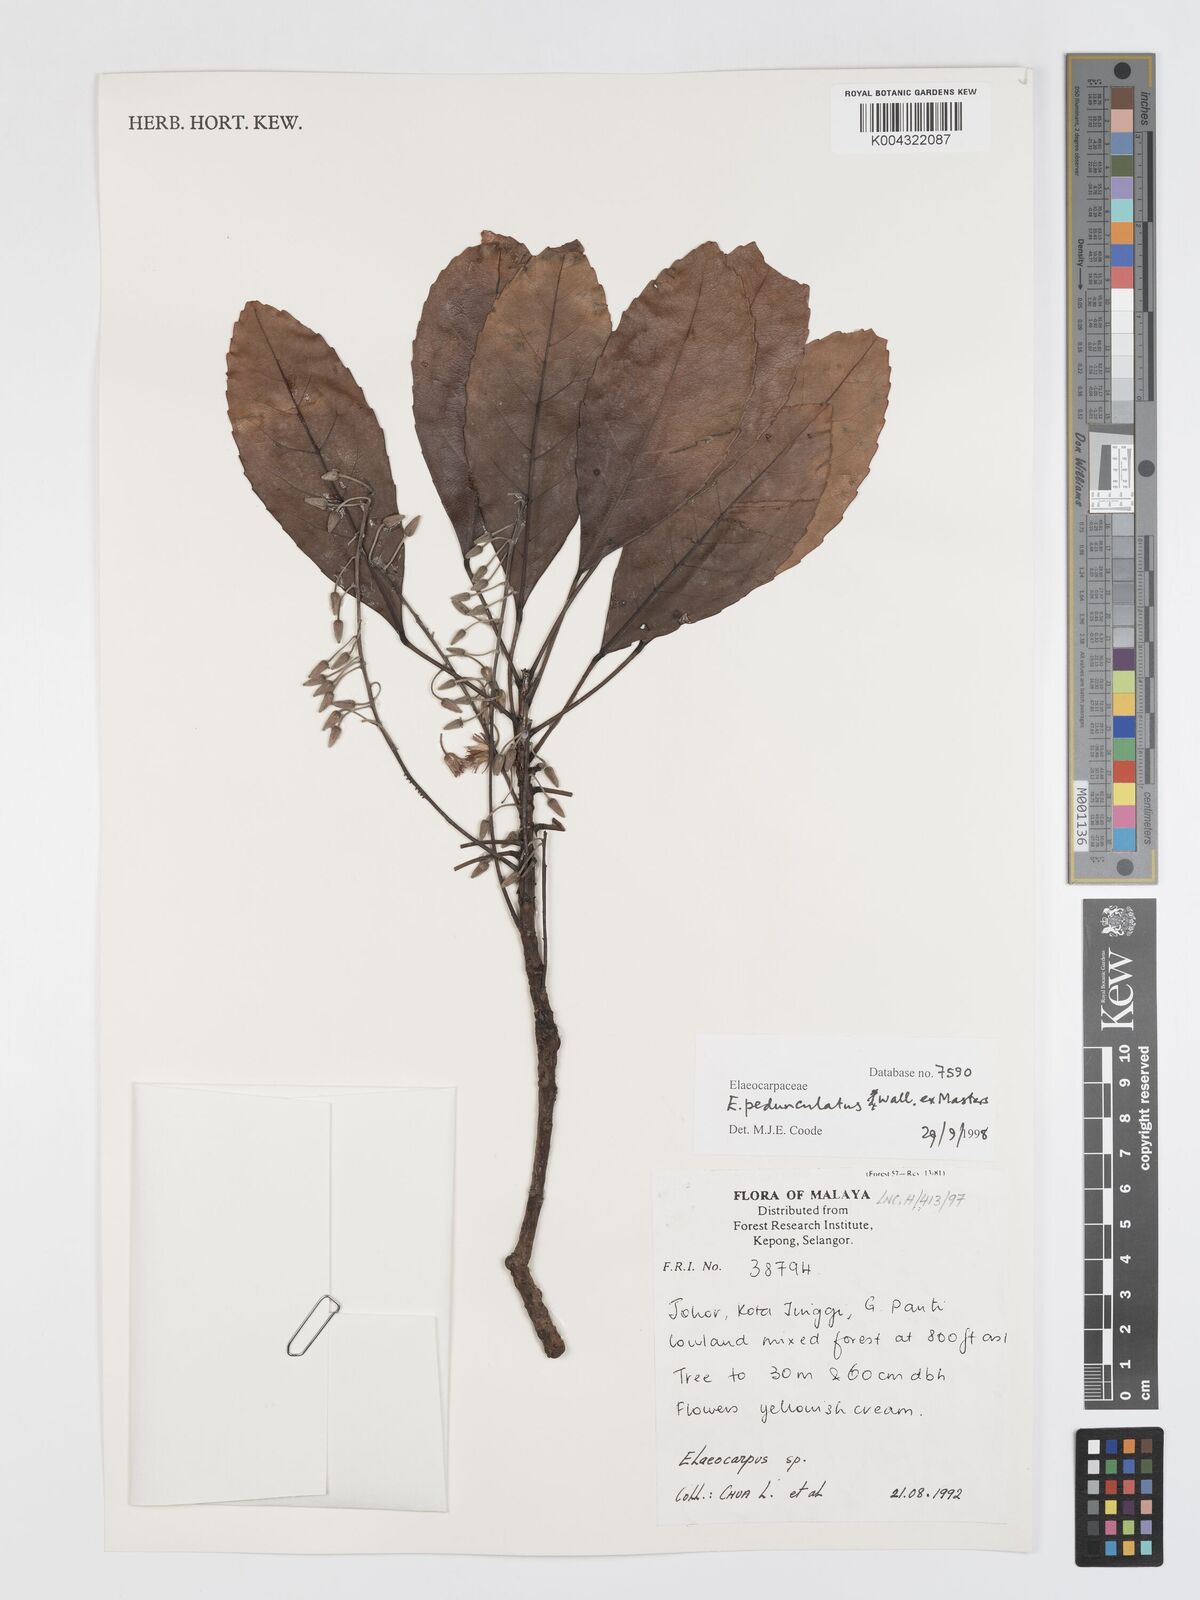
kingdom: Plantae
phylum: Tracheophyta
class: Magnoliopsida
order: Oxalidales
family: Elaeocarpaceae
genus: Elaeocarpus
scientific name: Elaeocarpus pedunculatus
